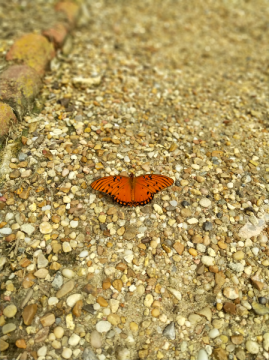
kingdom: Animalia
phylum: Arthropoda
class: Insecta
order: Lepidoptera
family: Nymphalidae
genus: Dione
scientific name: Dione vanillae
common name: Gulf Fritillary
